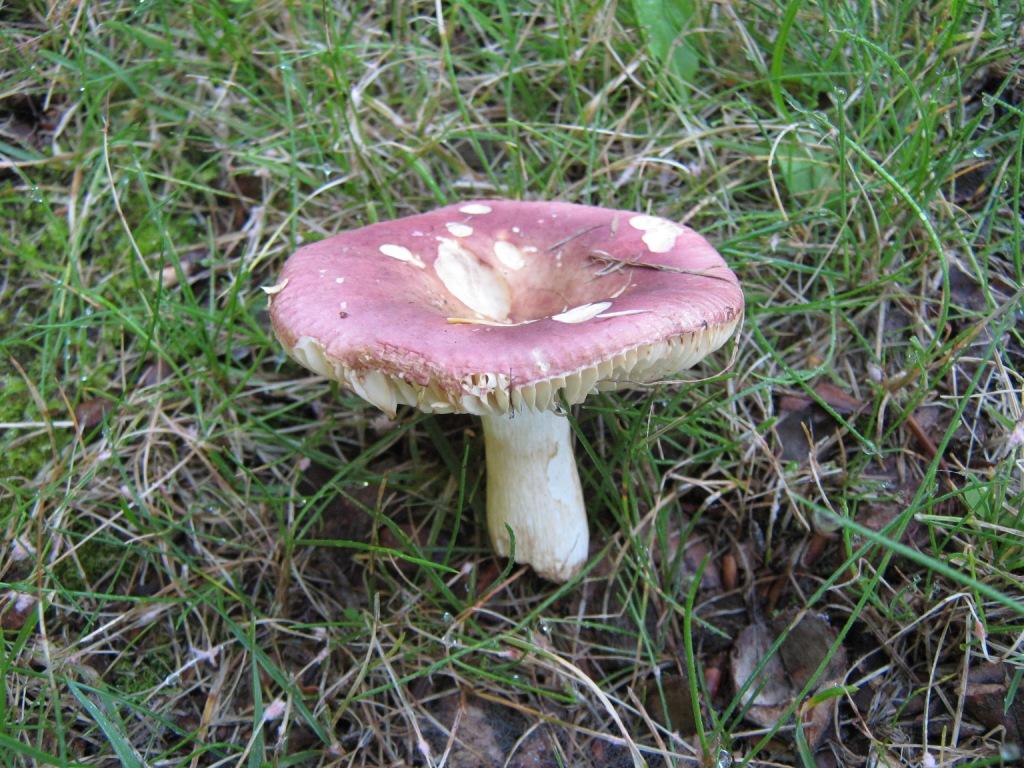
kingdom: Fungi
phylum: Basidiomycota
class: Agaricomycetes
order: Russulales
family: Russulaceae
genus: Russula
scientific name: Russula
